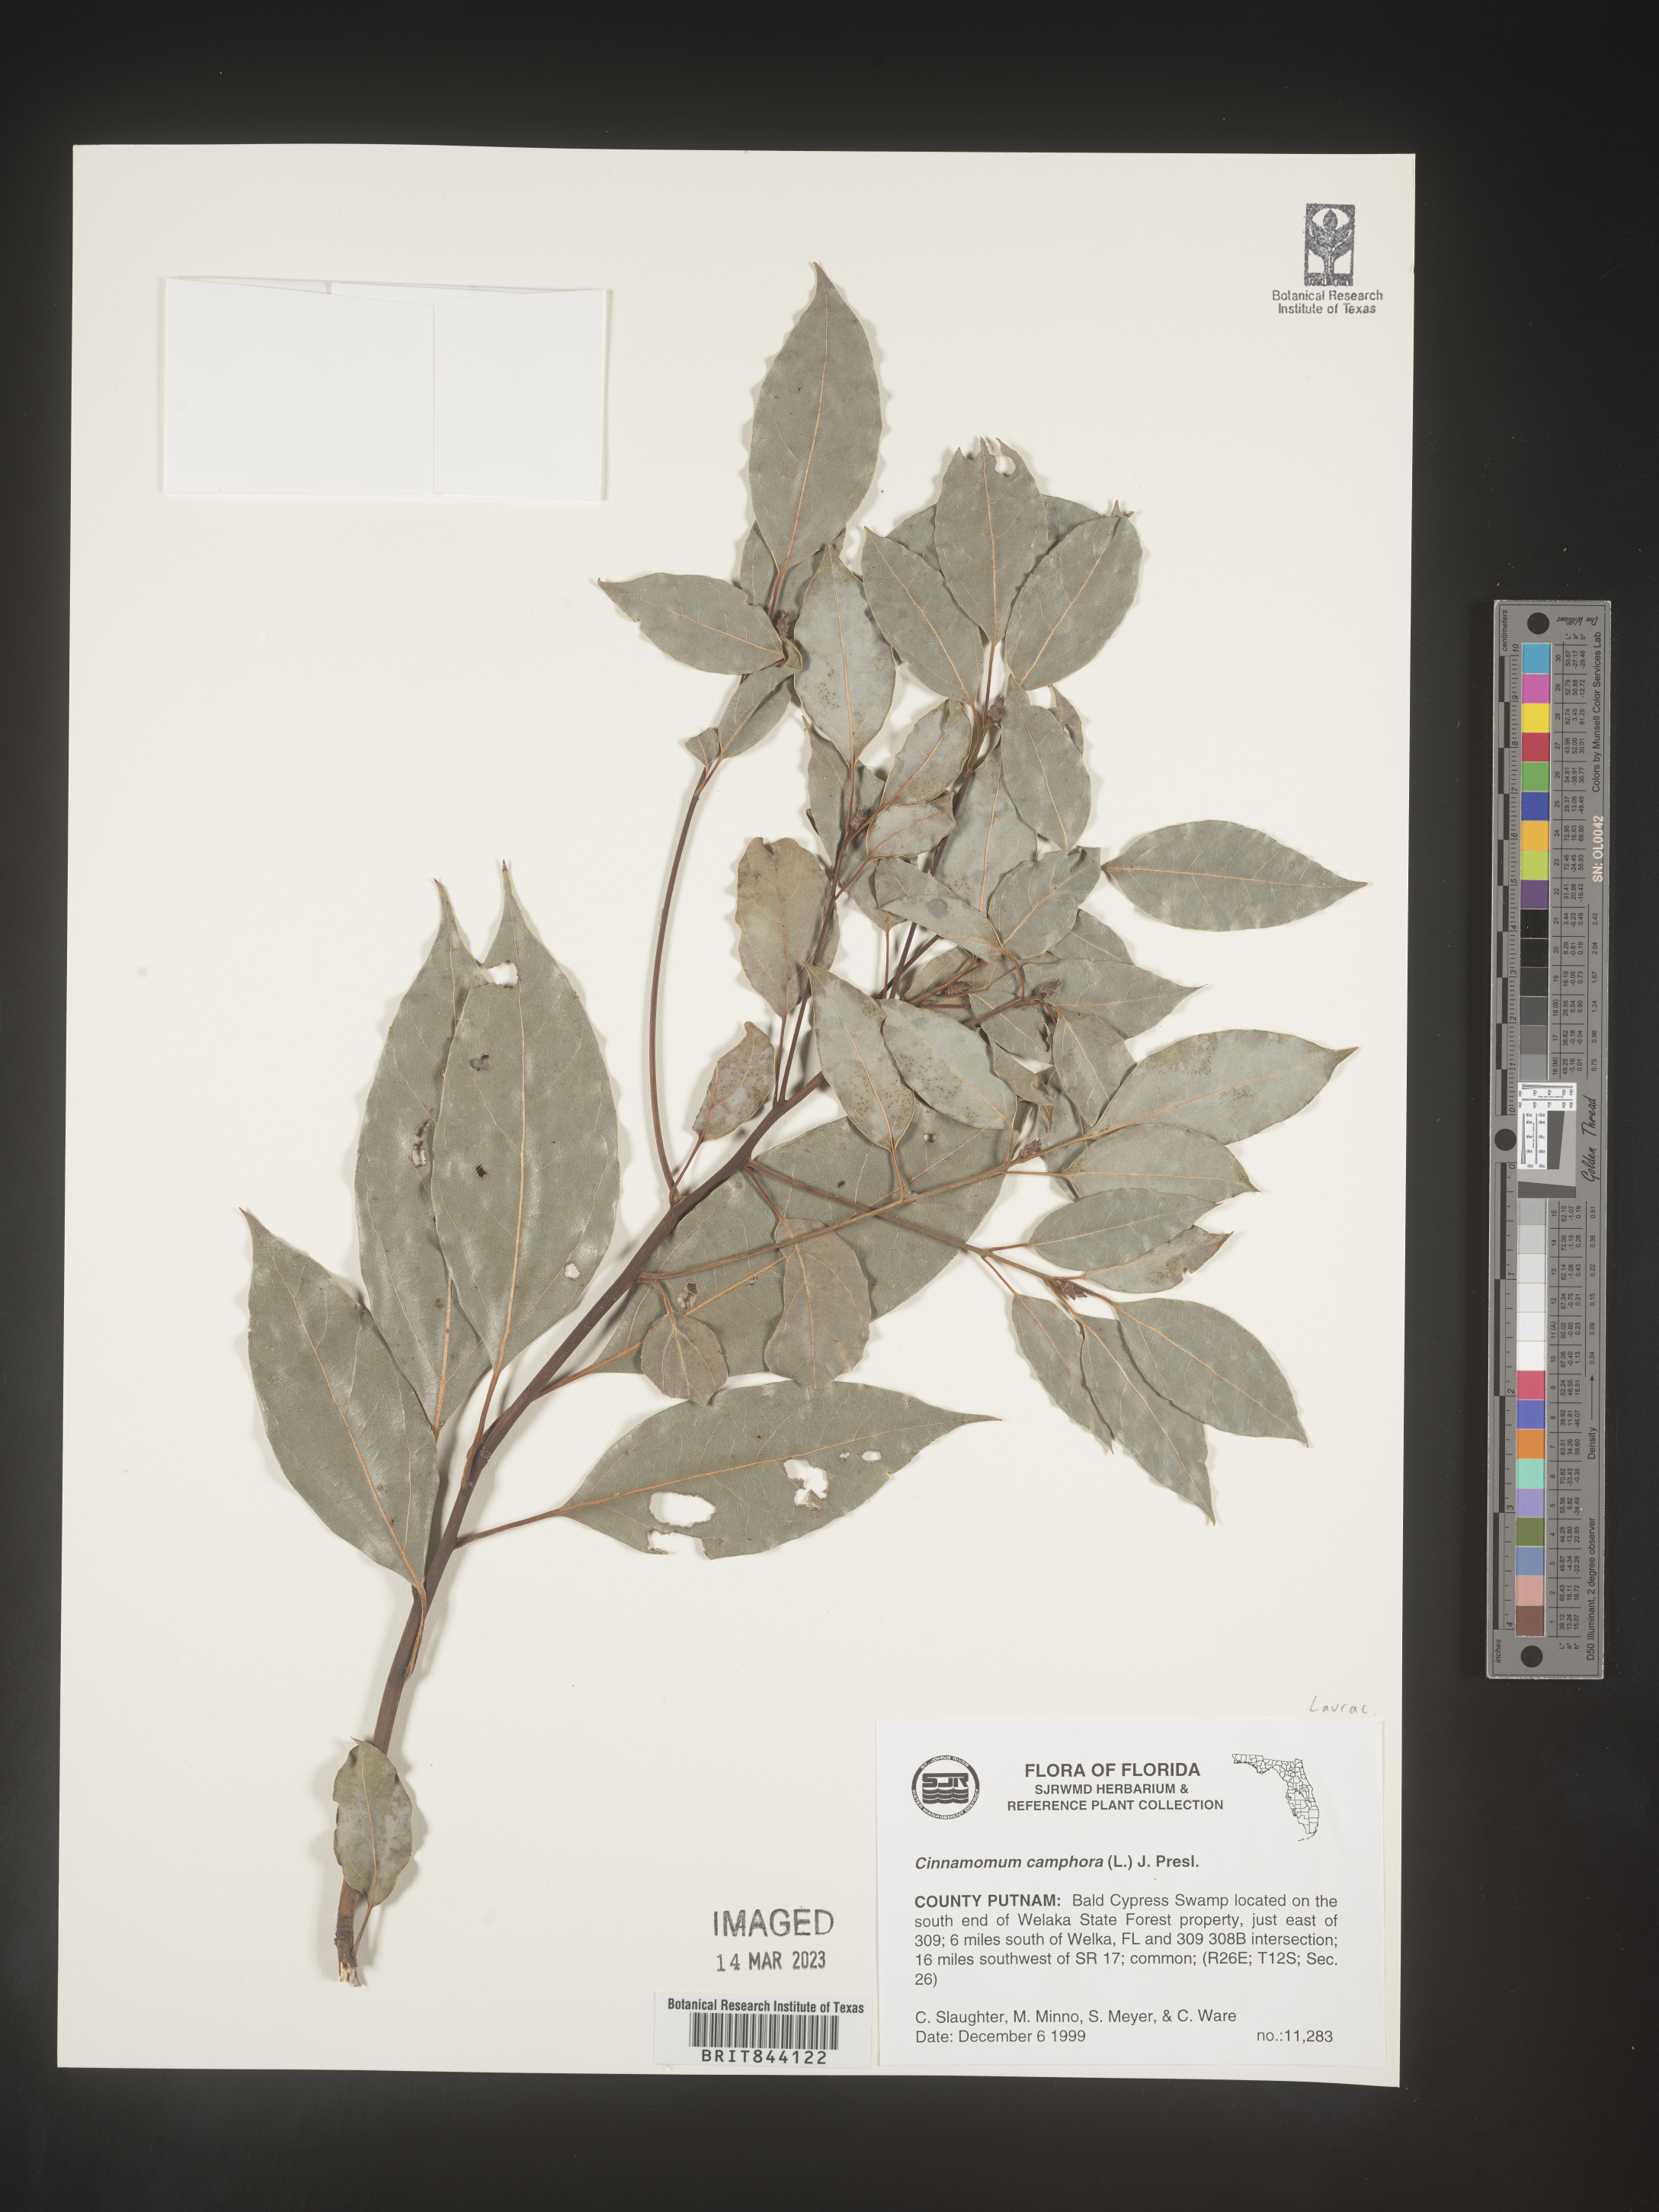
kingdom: Plantae
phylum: Tracheophyta
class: Magnoliopsida
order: Laurales
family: Lauraceae
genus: Cinnamomum
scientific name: Cinnamomum
